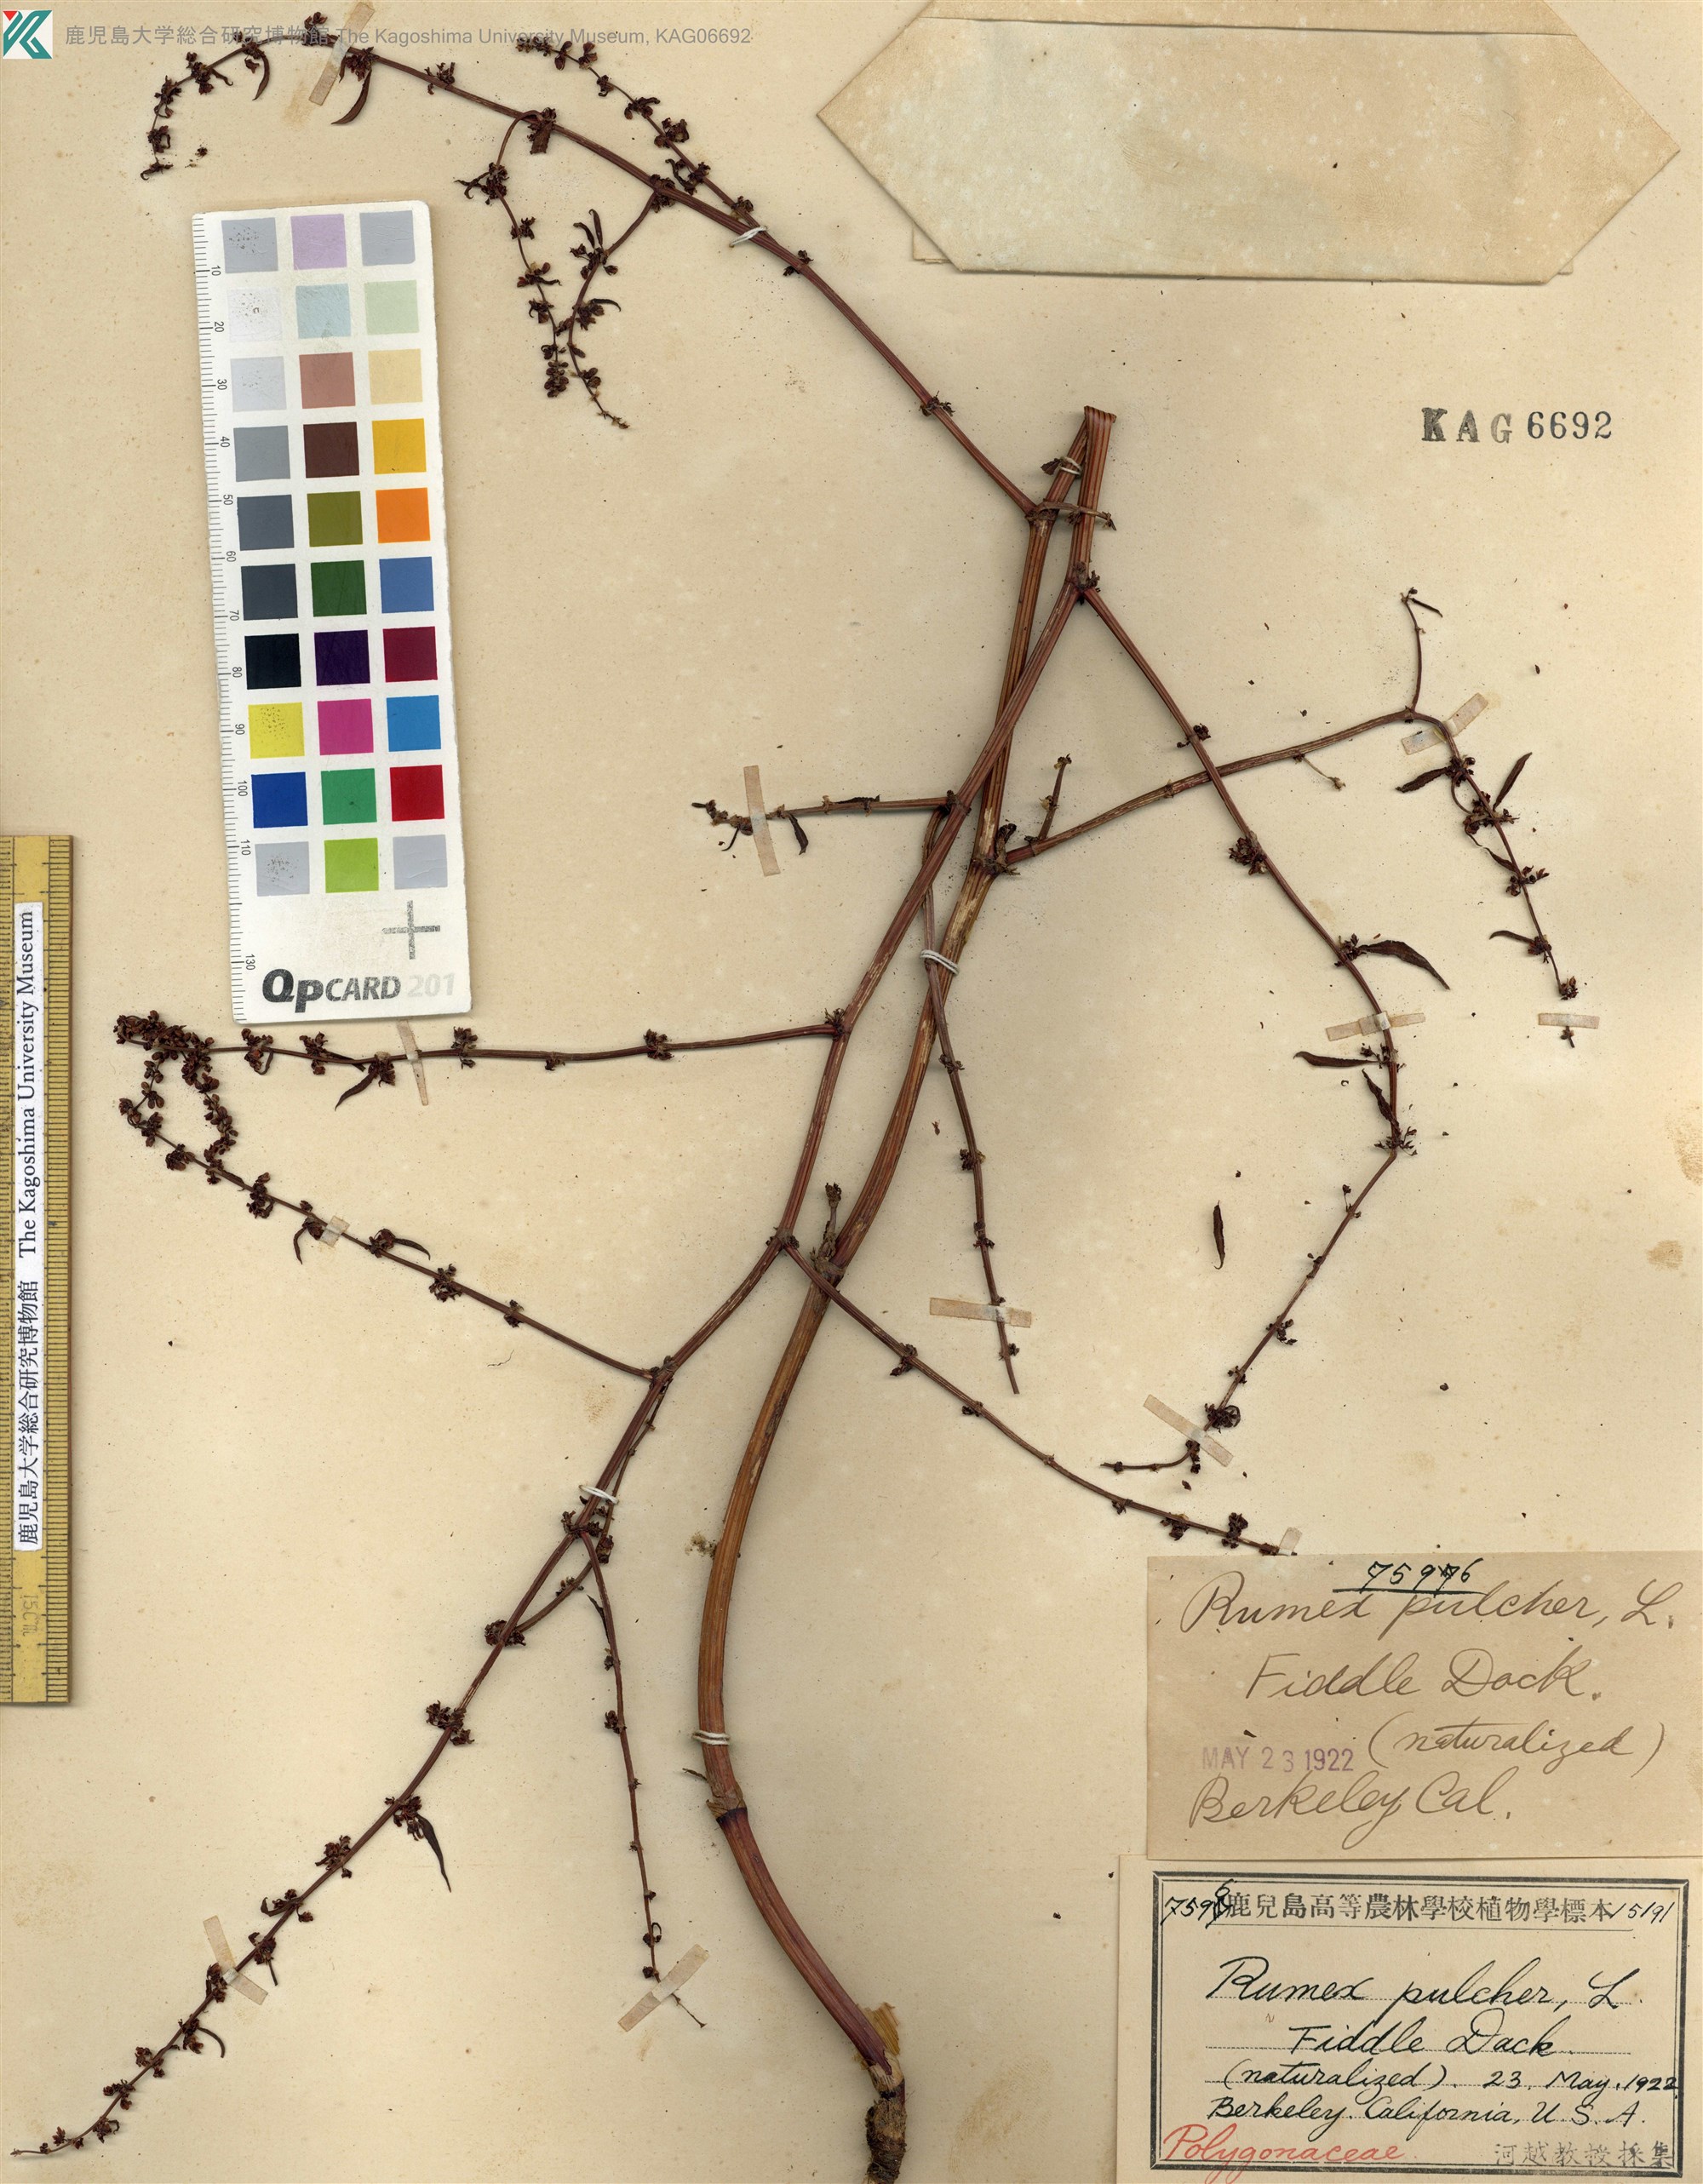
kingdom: Plantae
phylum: Tracheophyta
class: Magnoliopsida
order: Caryophyllales
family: Polygonaceae
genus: Rumex
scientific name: Rumex pulcher
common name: Fiddle dock
